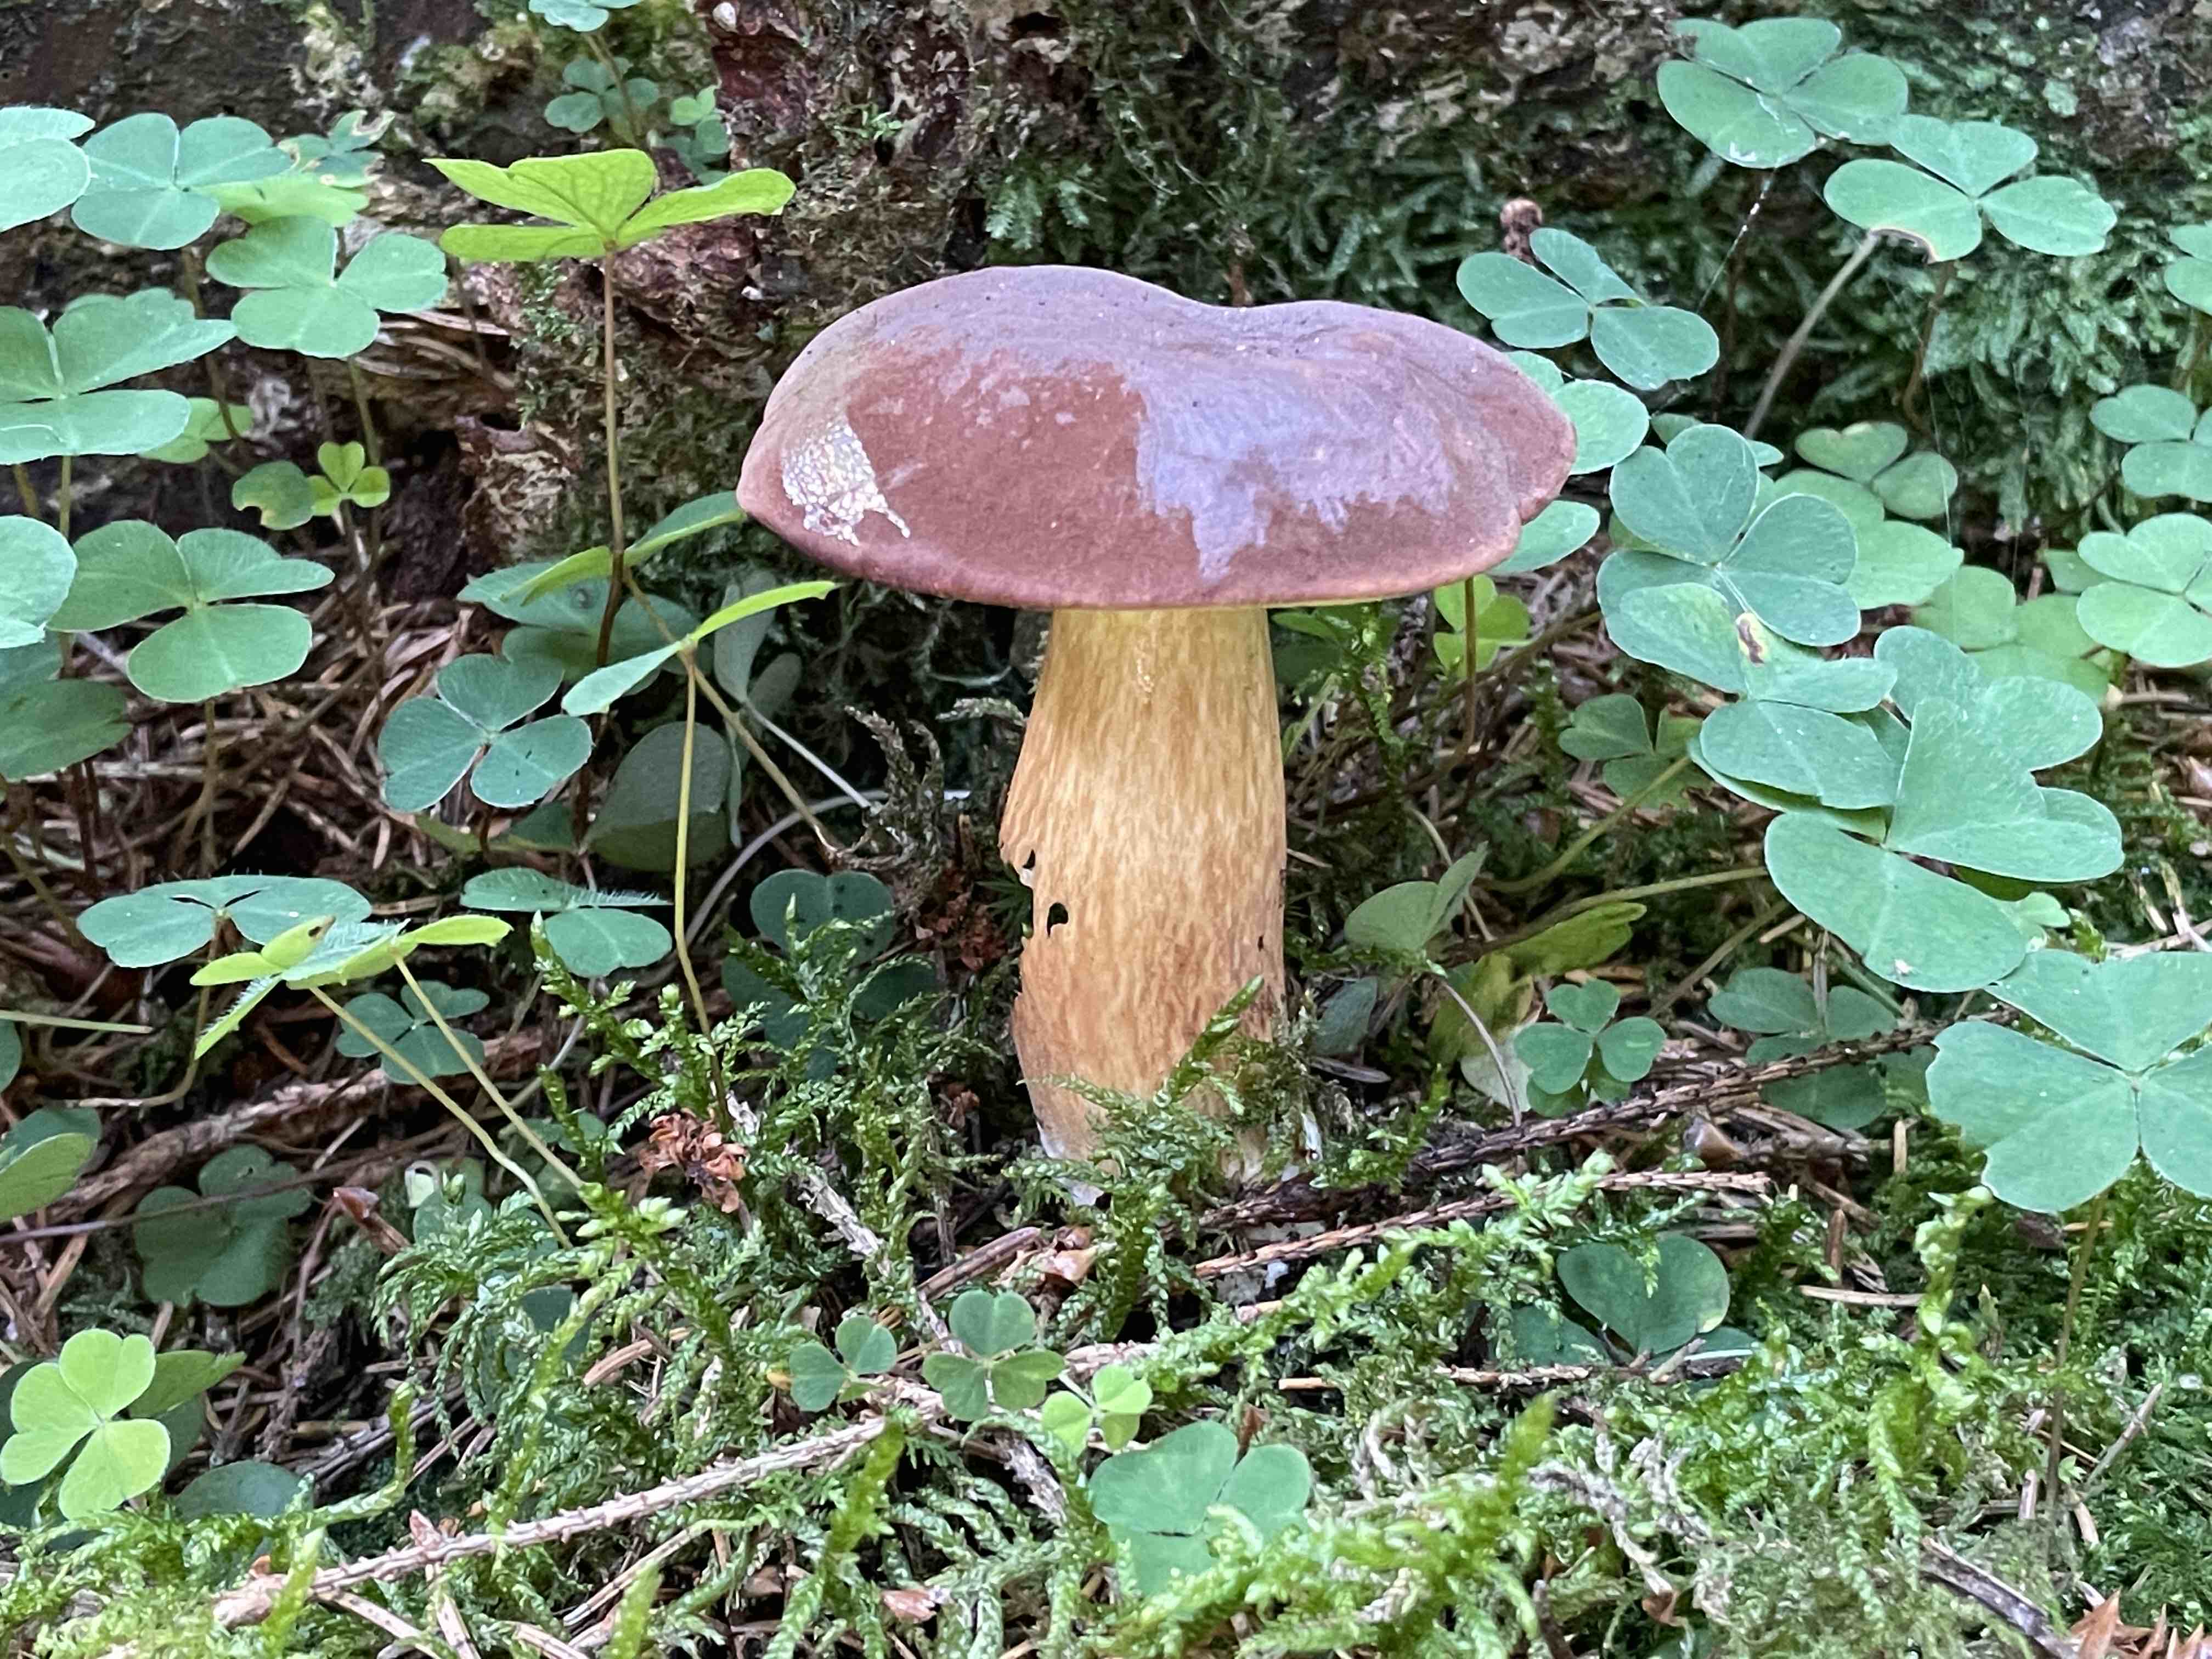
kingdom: Fungi
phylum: Basidiomycota
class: Agaricomycetes
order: Boletales
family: Boletaceae
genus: Imleria
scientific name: Imleria badia
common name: brunstokket rørhat
